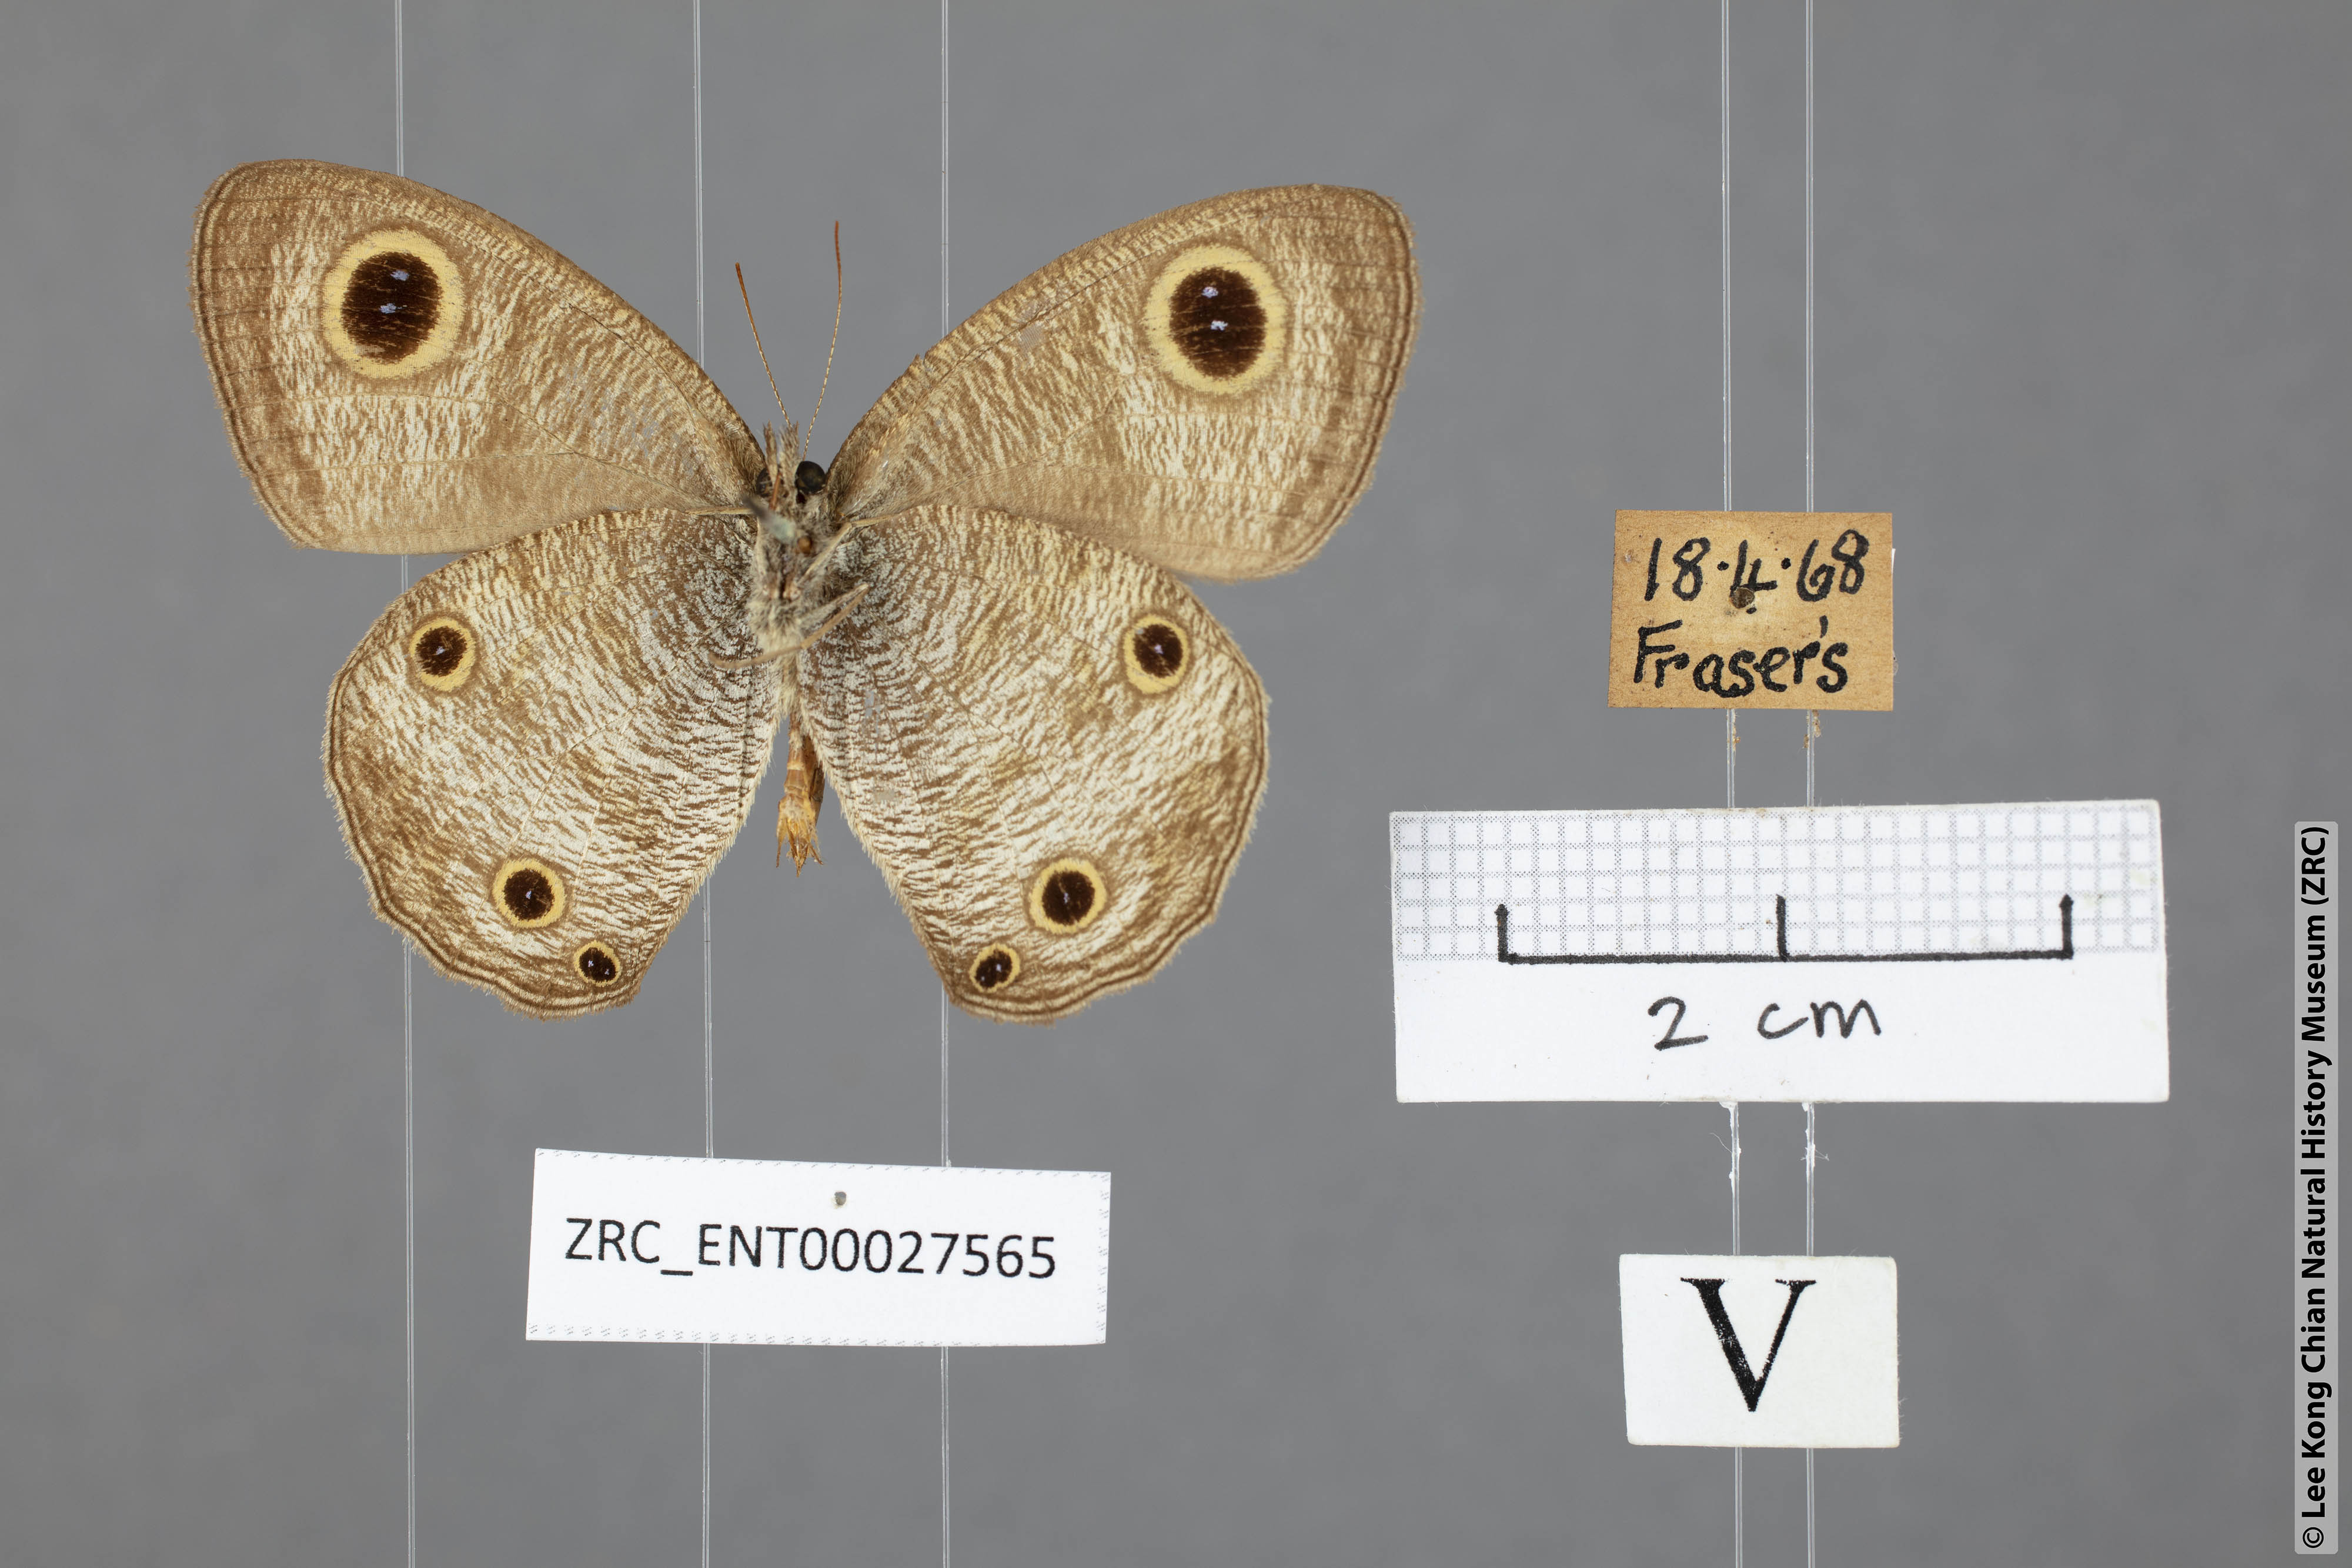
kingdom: Animalia
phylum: Arthropoda
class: Insecta
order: Lepidoptera
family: Nymphalidae
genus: Ypthima
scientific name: Ypthima pandocus
